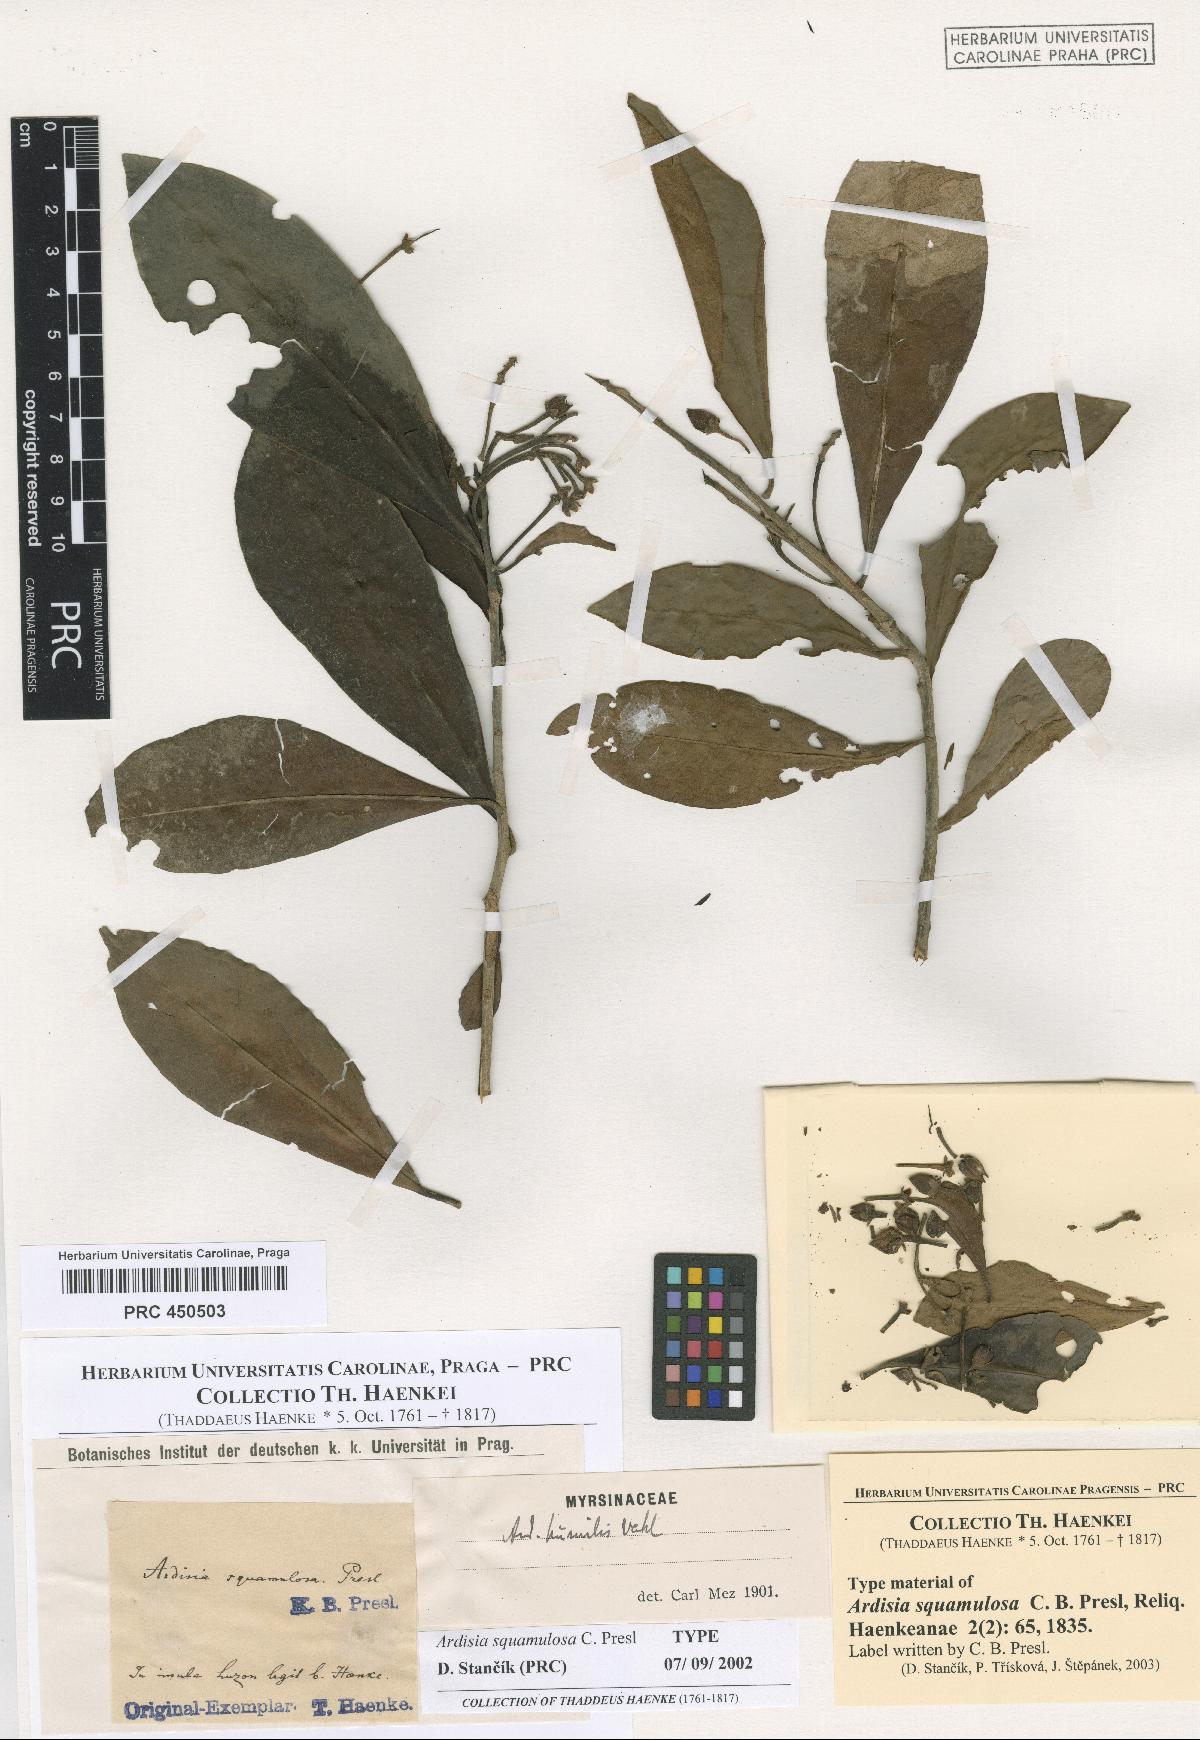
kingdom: Plantae
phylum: Tracheophyta
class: Magnoliopsida
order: Ericales
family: Primulaceae
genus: Ardisia
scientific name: Ardisia elliptica
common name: Shoebutton
